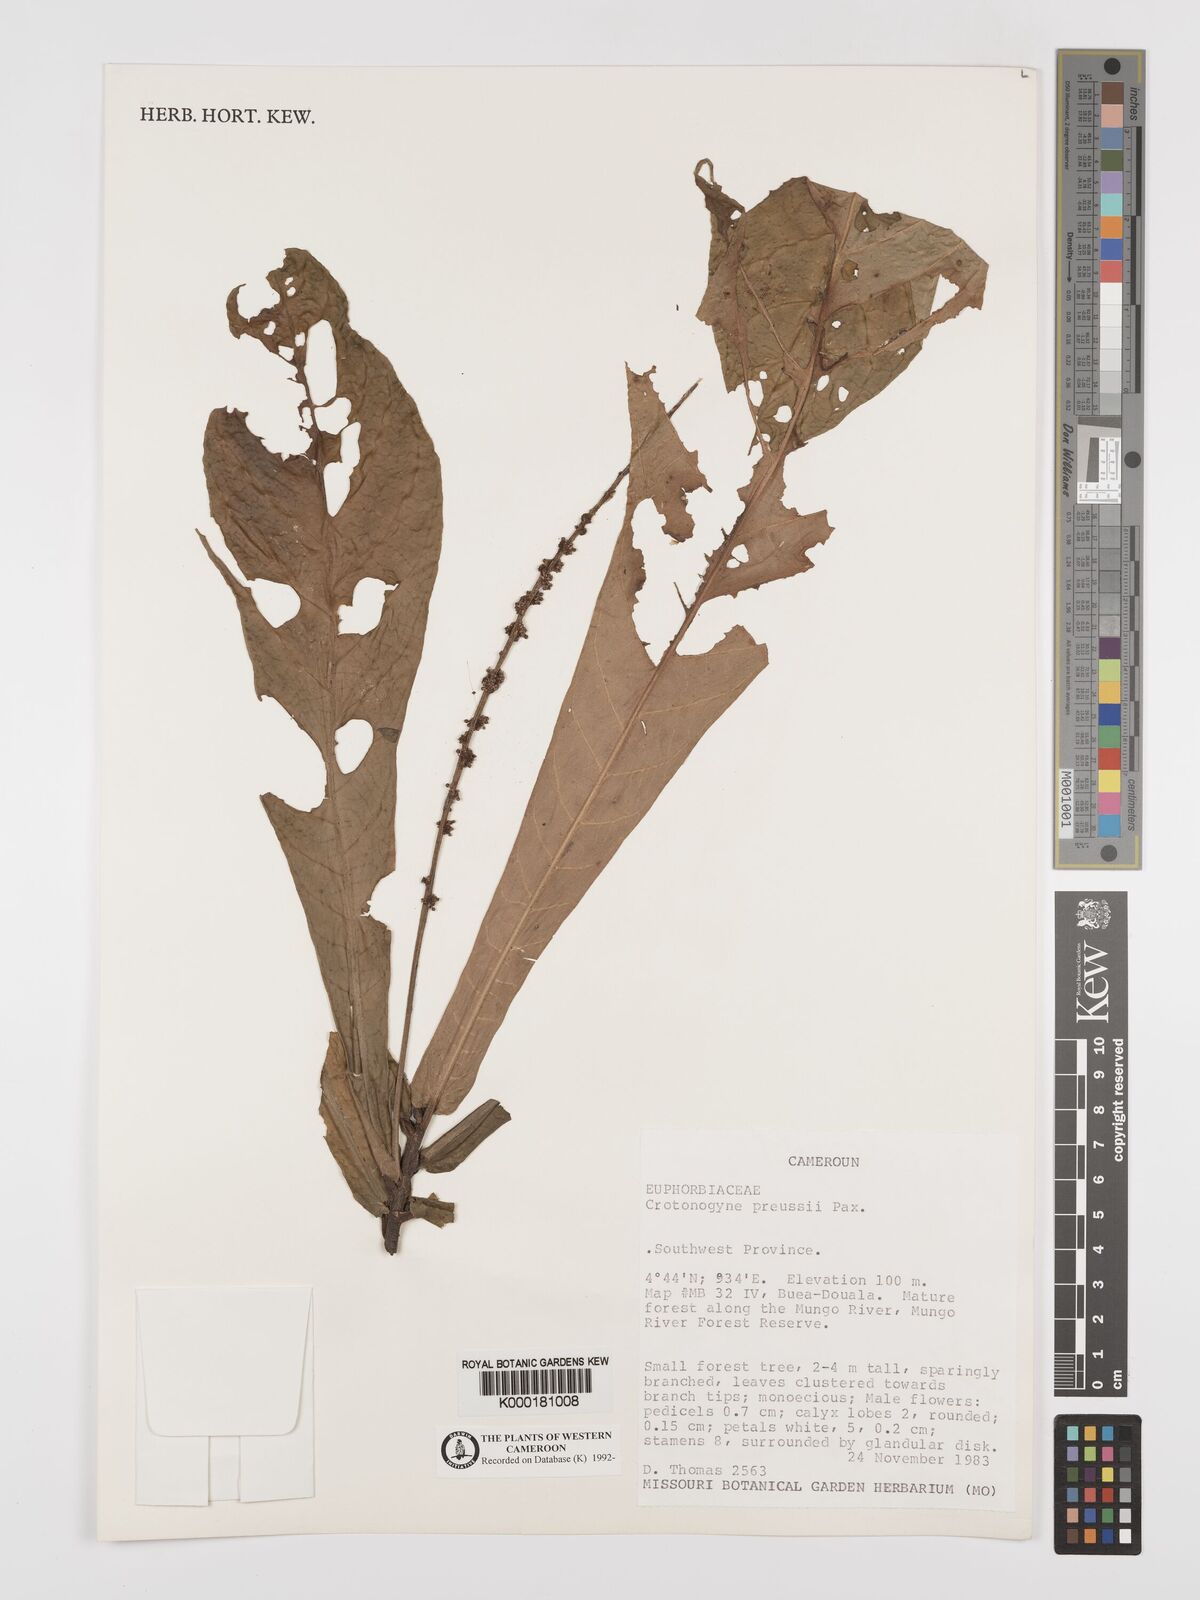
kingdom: Plantae
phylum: Tracheophyta
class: Magnoliopsida
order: Malpighiales
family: Euphorbiaceae
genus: Crotonogyne
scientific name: Crotonogyne preussii
